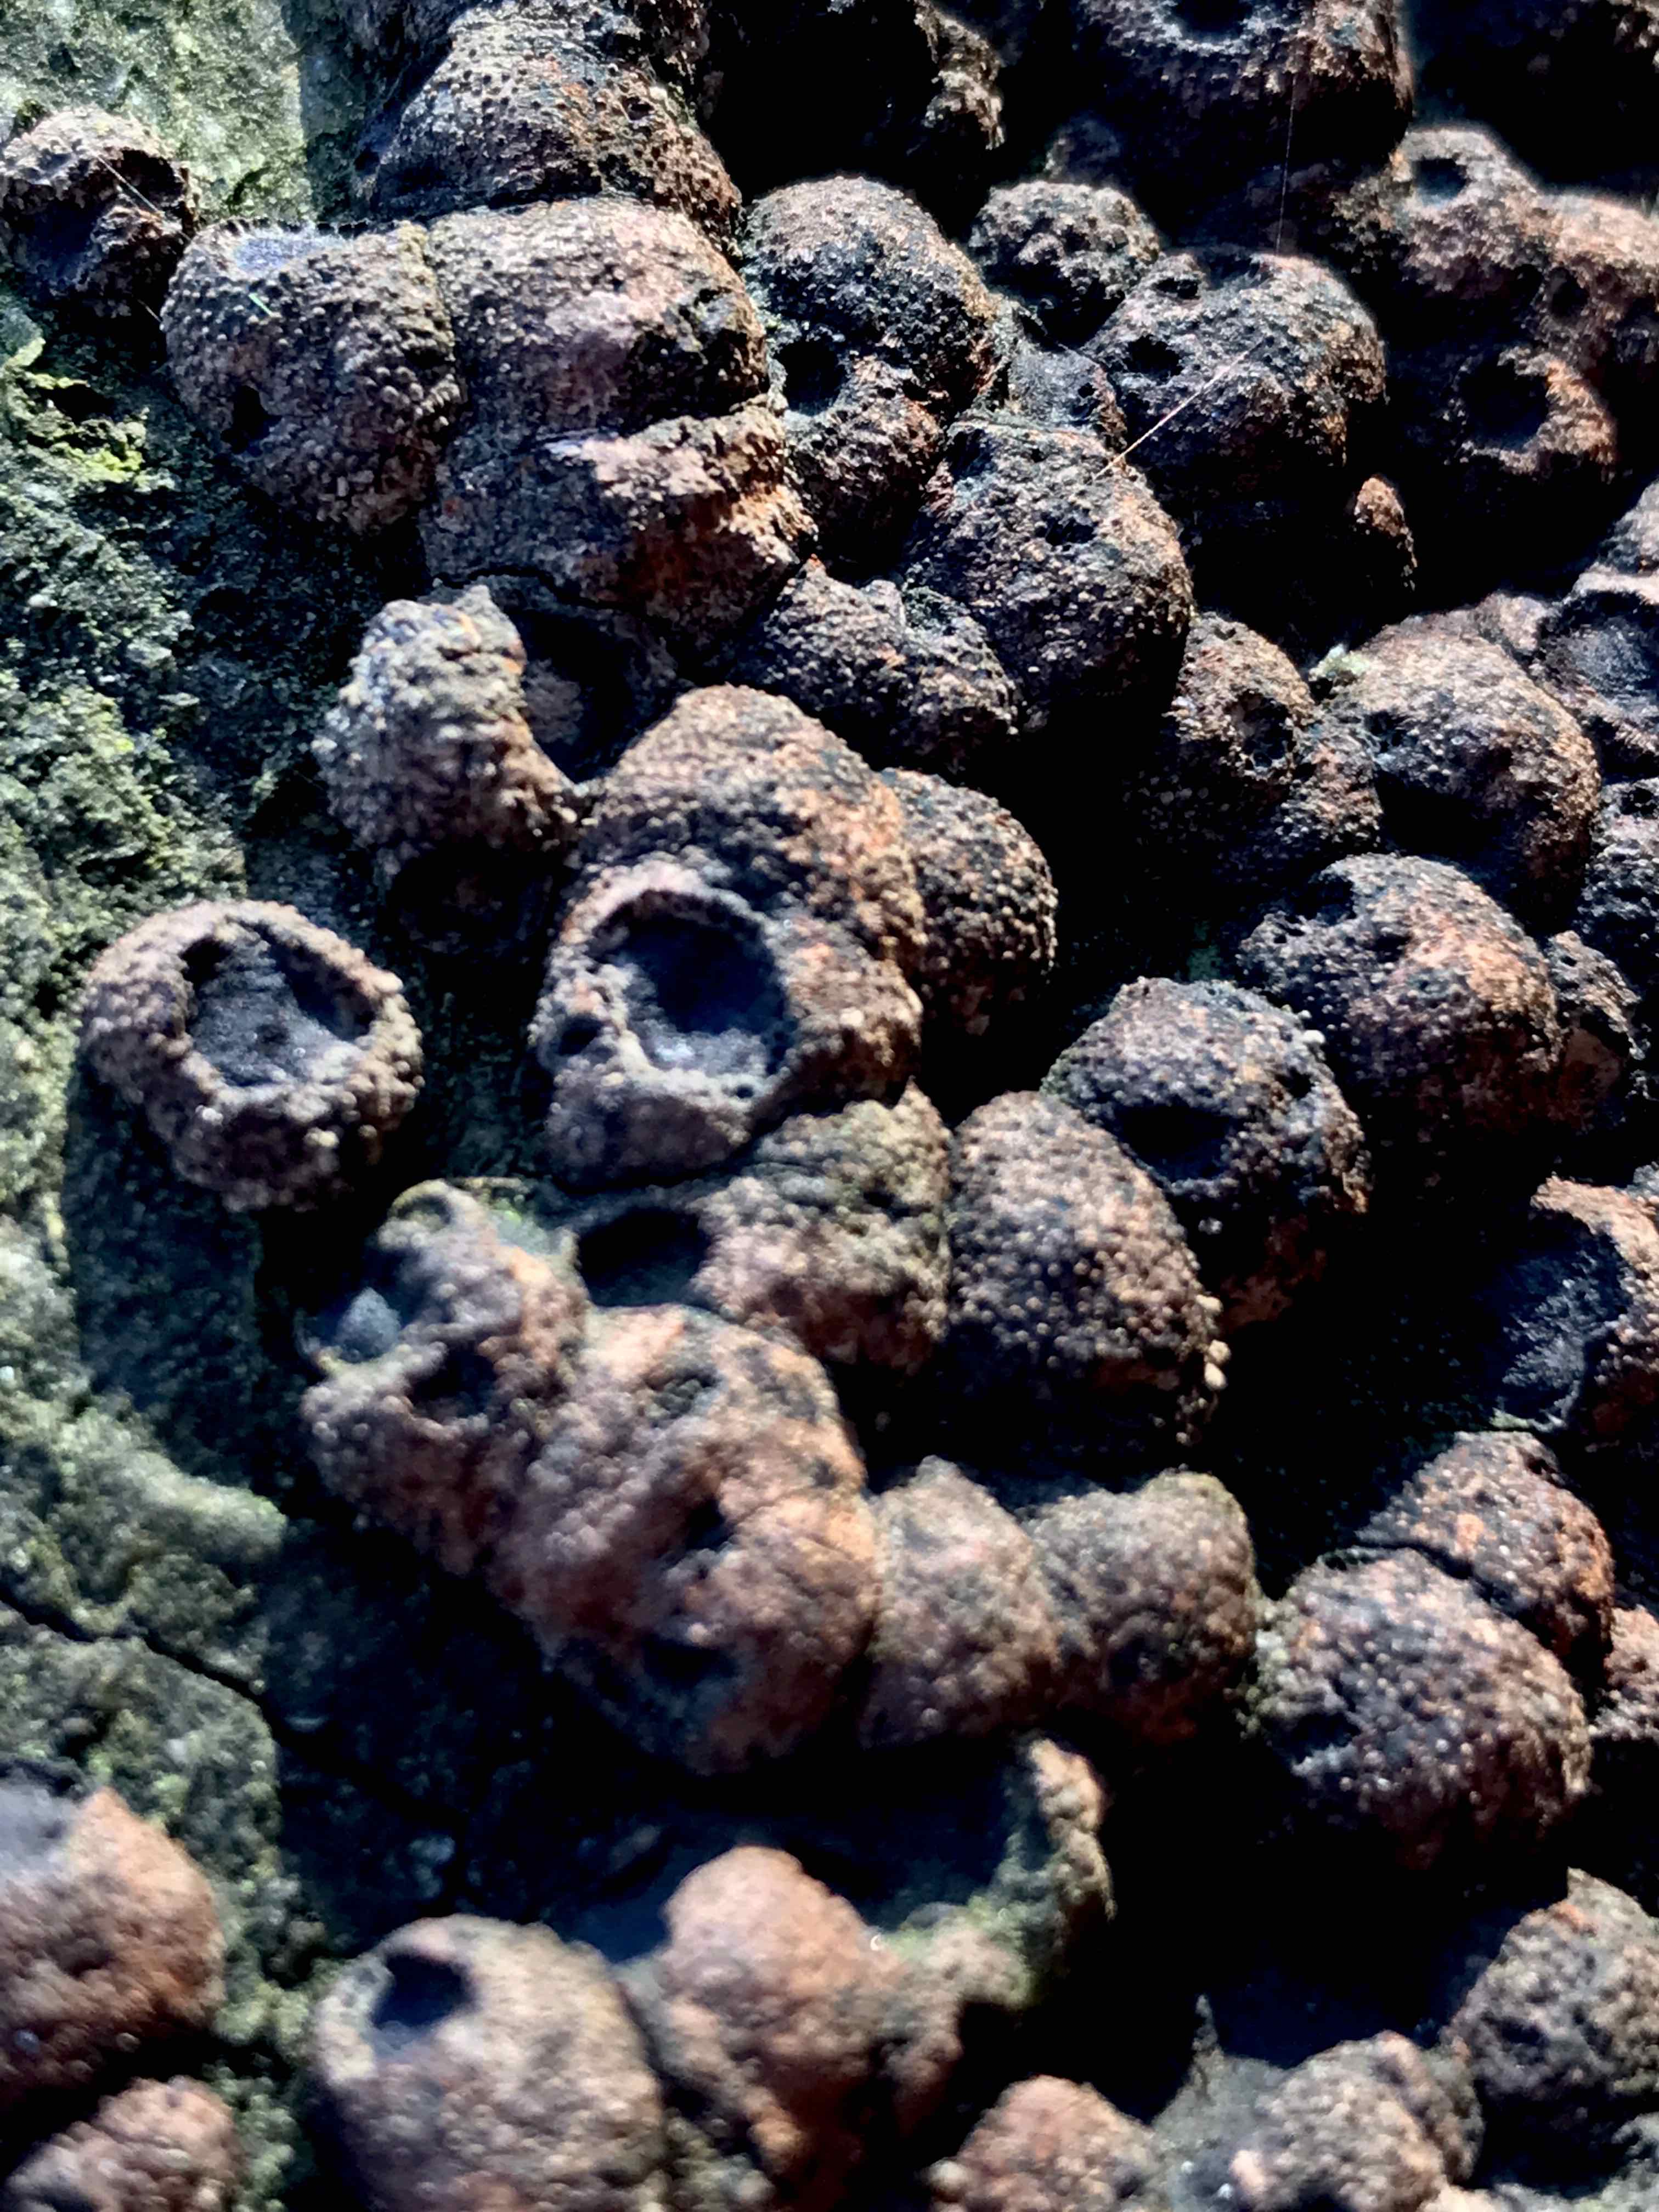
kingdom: Fungi
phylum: Ascomycota
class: Sordariomycetes
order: Xylariales
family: Hypoxylaceae
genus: Hypoxylon
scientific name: Hypoxylon fragiforme
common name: kuljordbær
